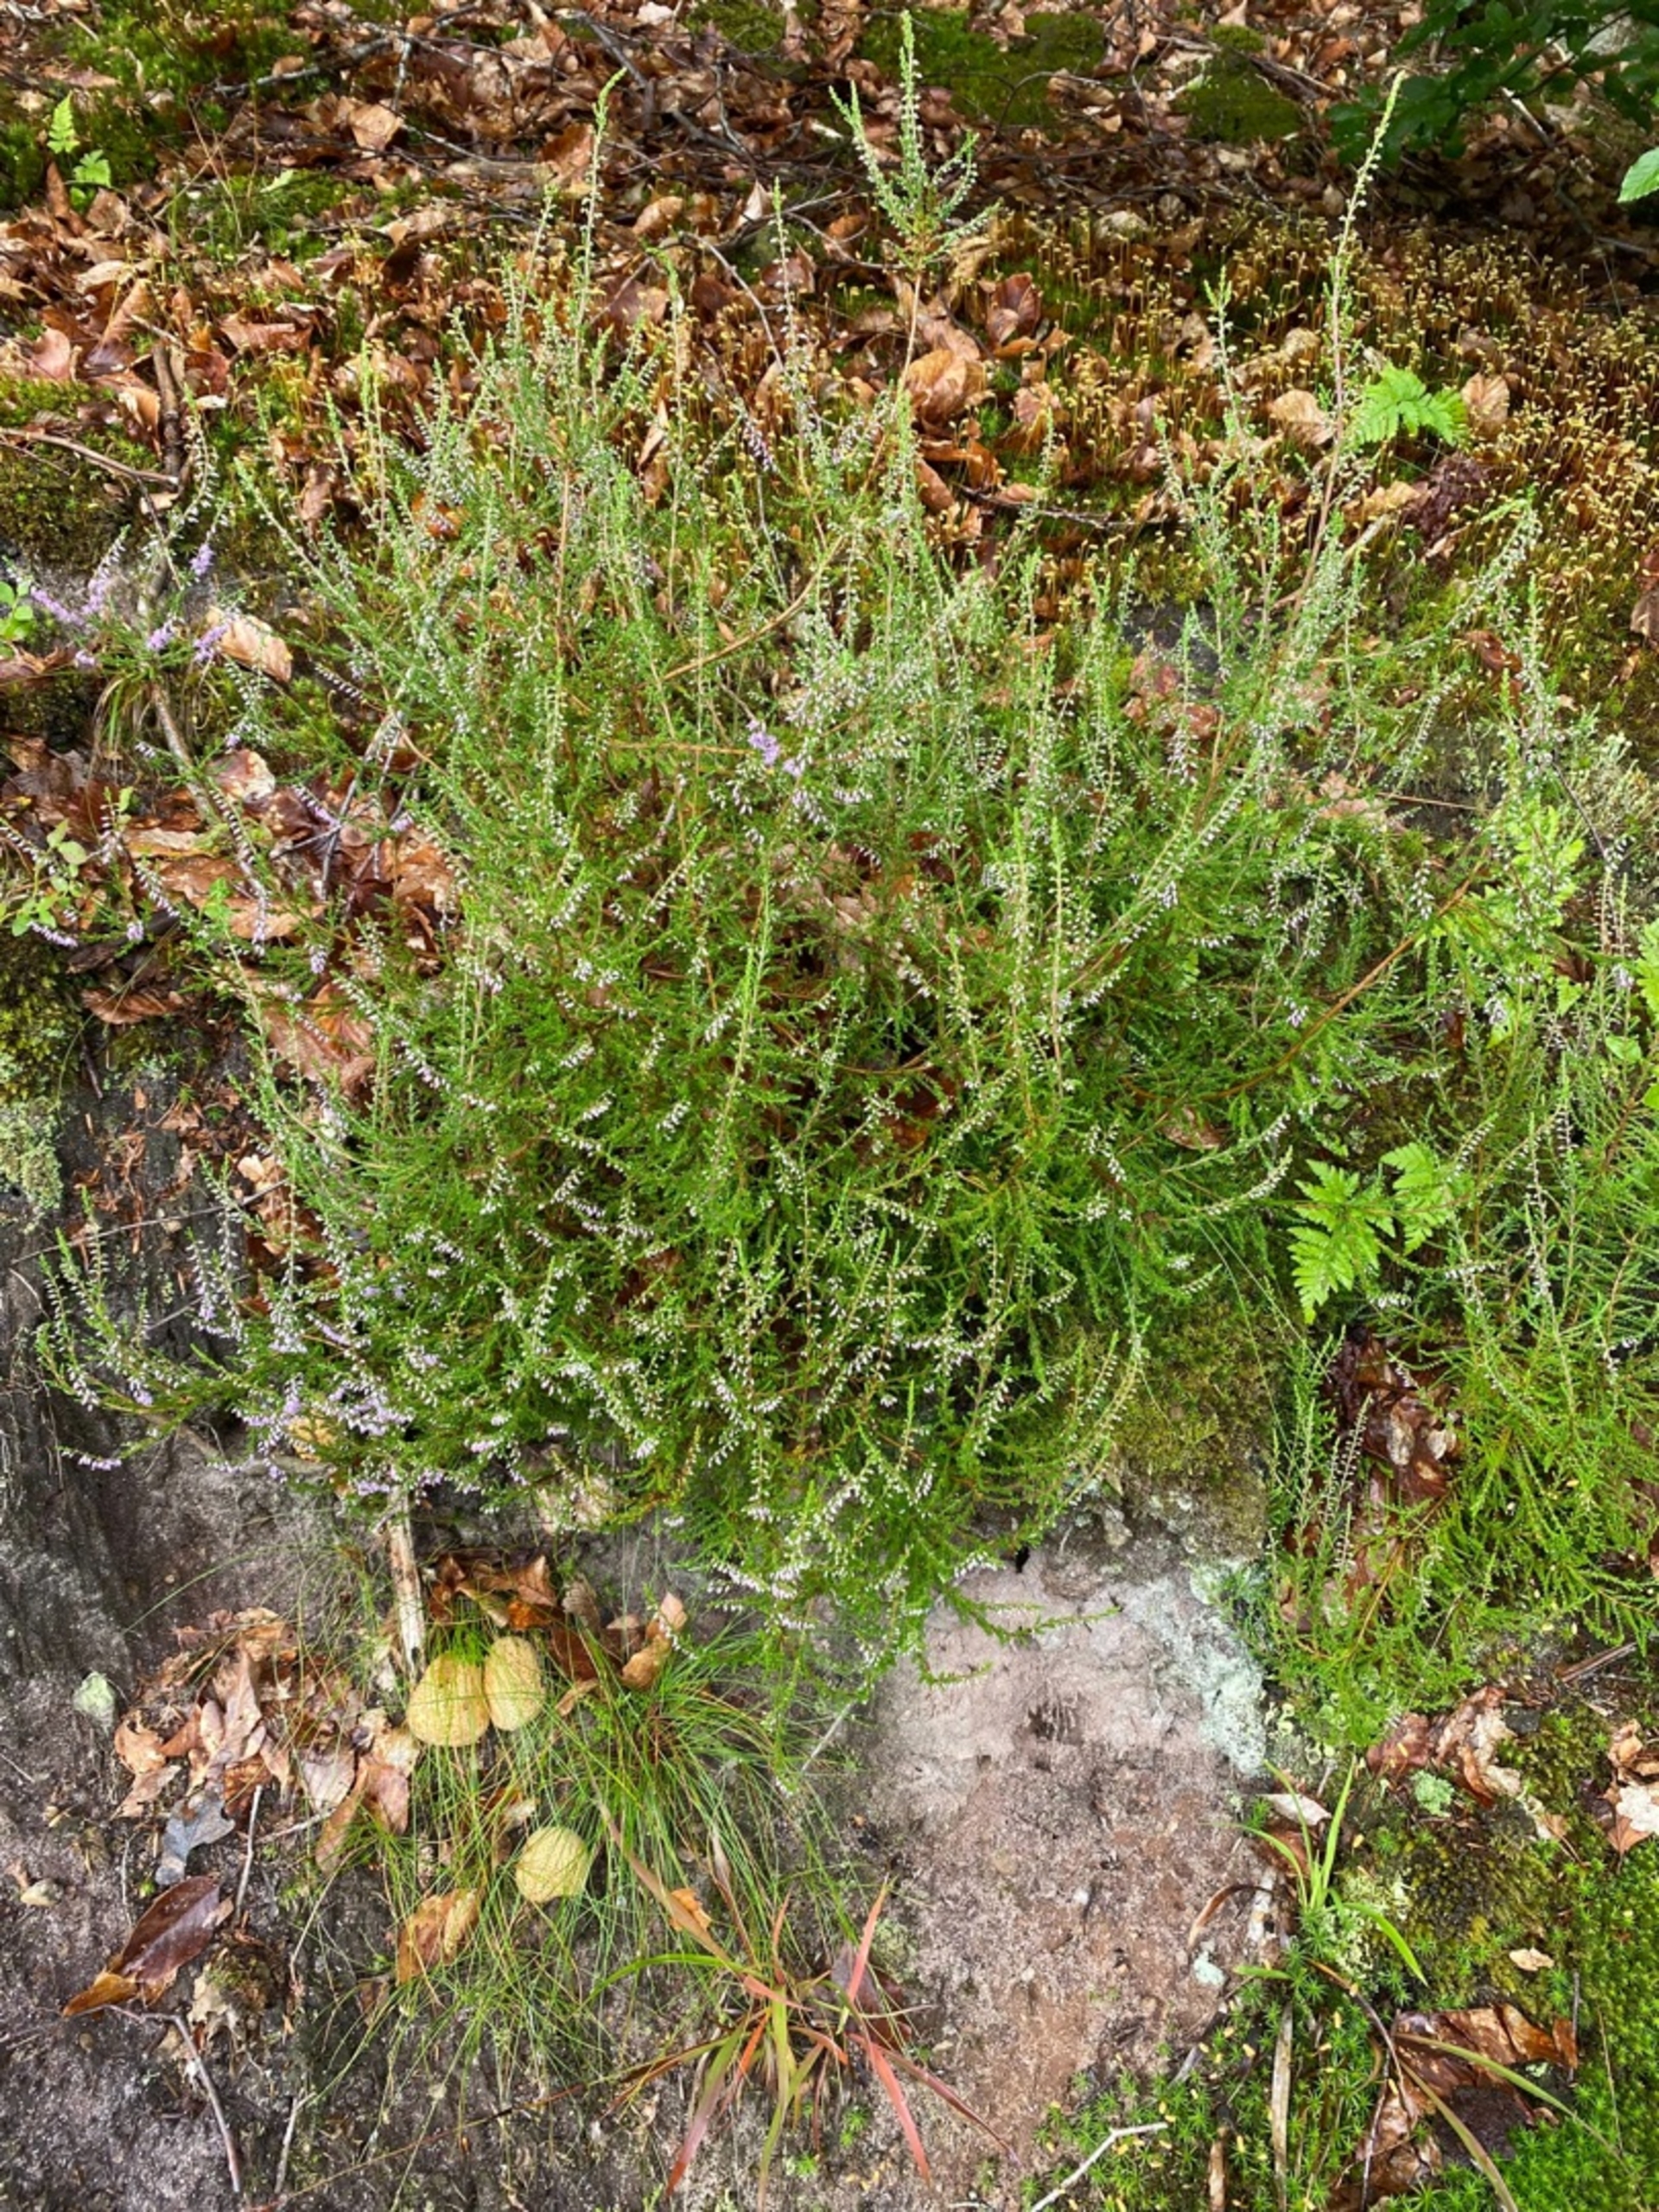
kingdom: Plantae
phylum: Tracheophyta
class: Magnoliopsida
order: Ericales
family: Ericaceae
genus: Calluna
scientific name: Calluna vulgaris
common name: Hedelyng
